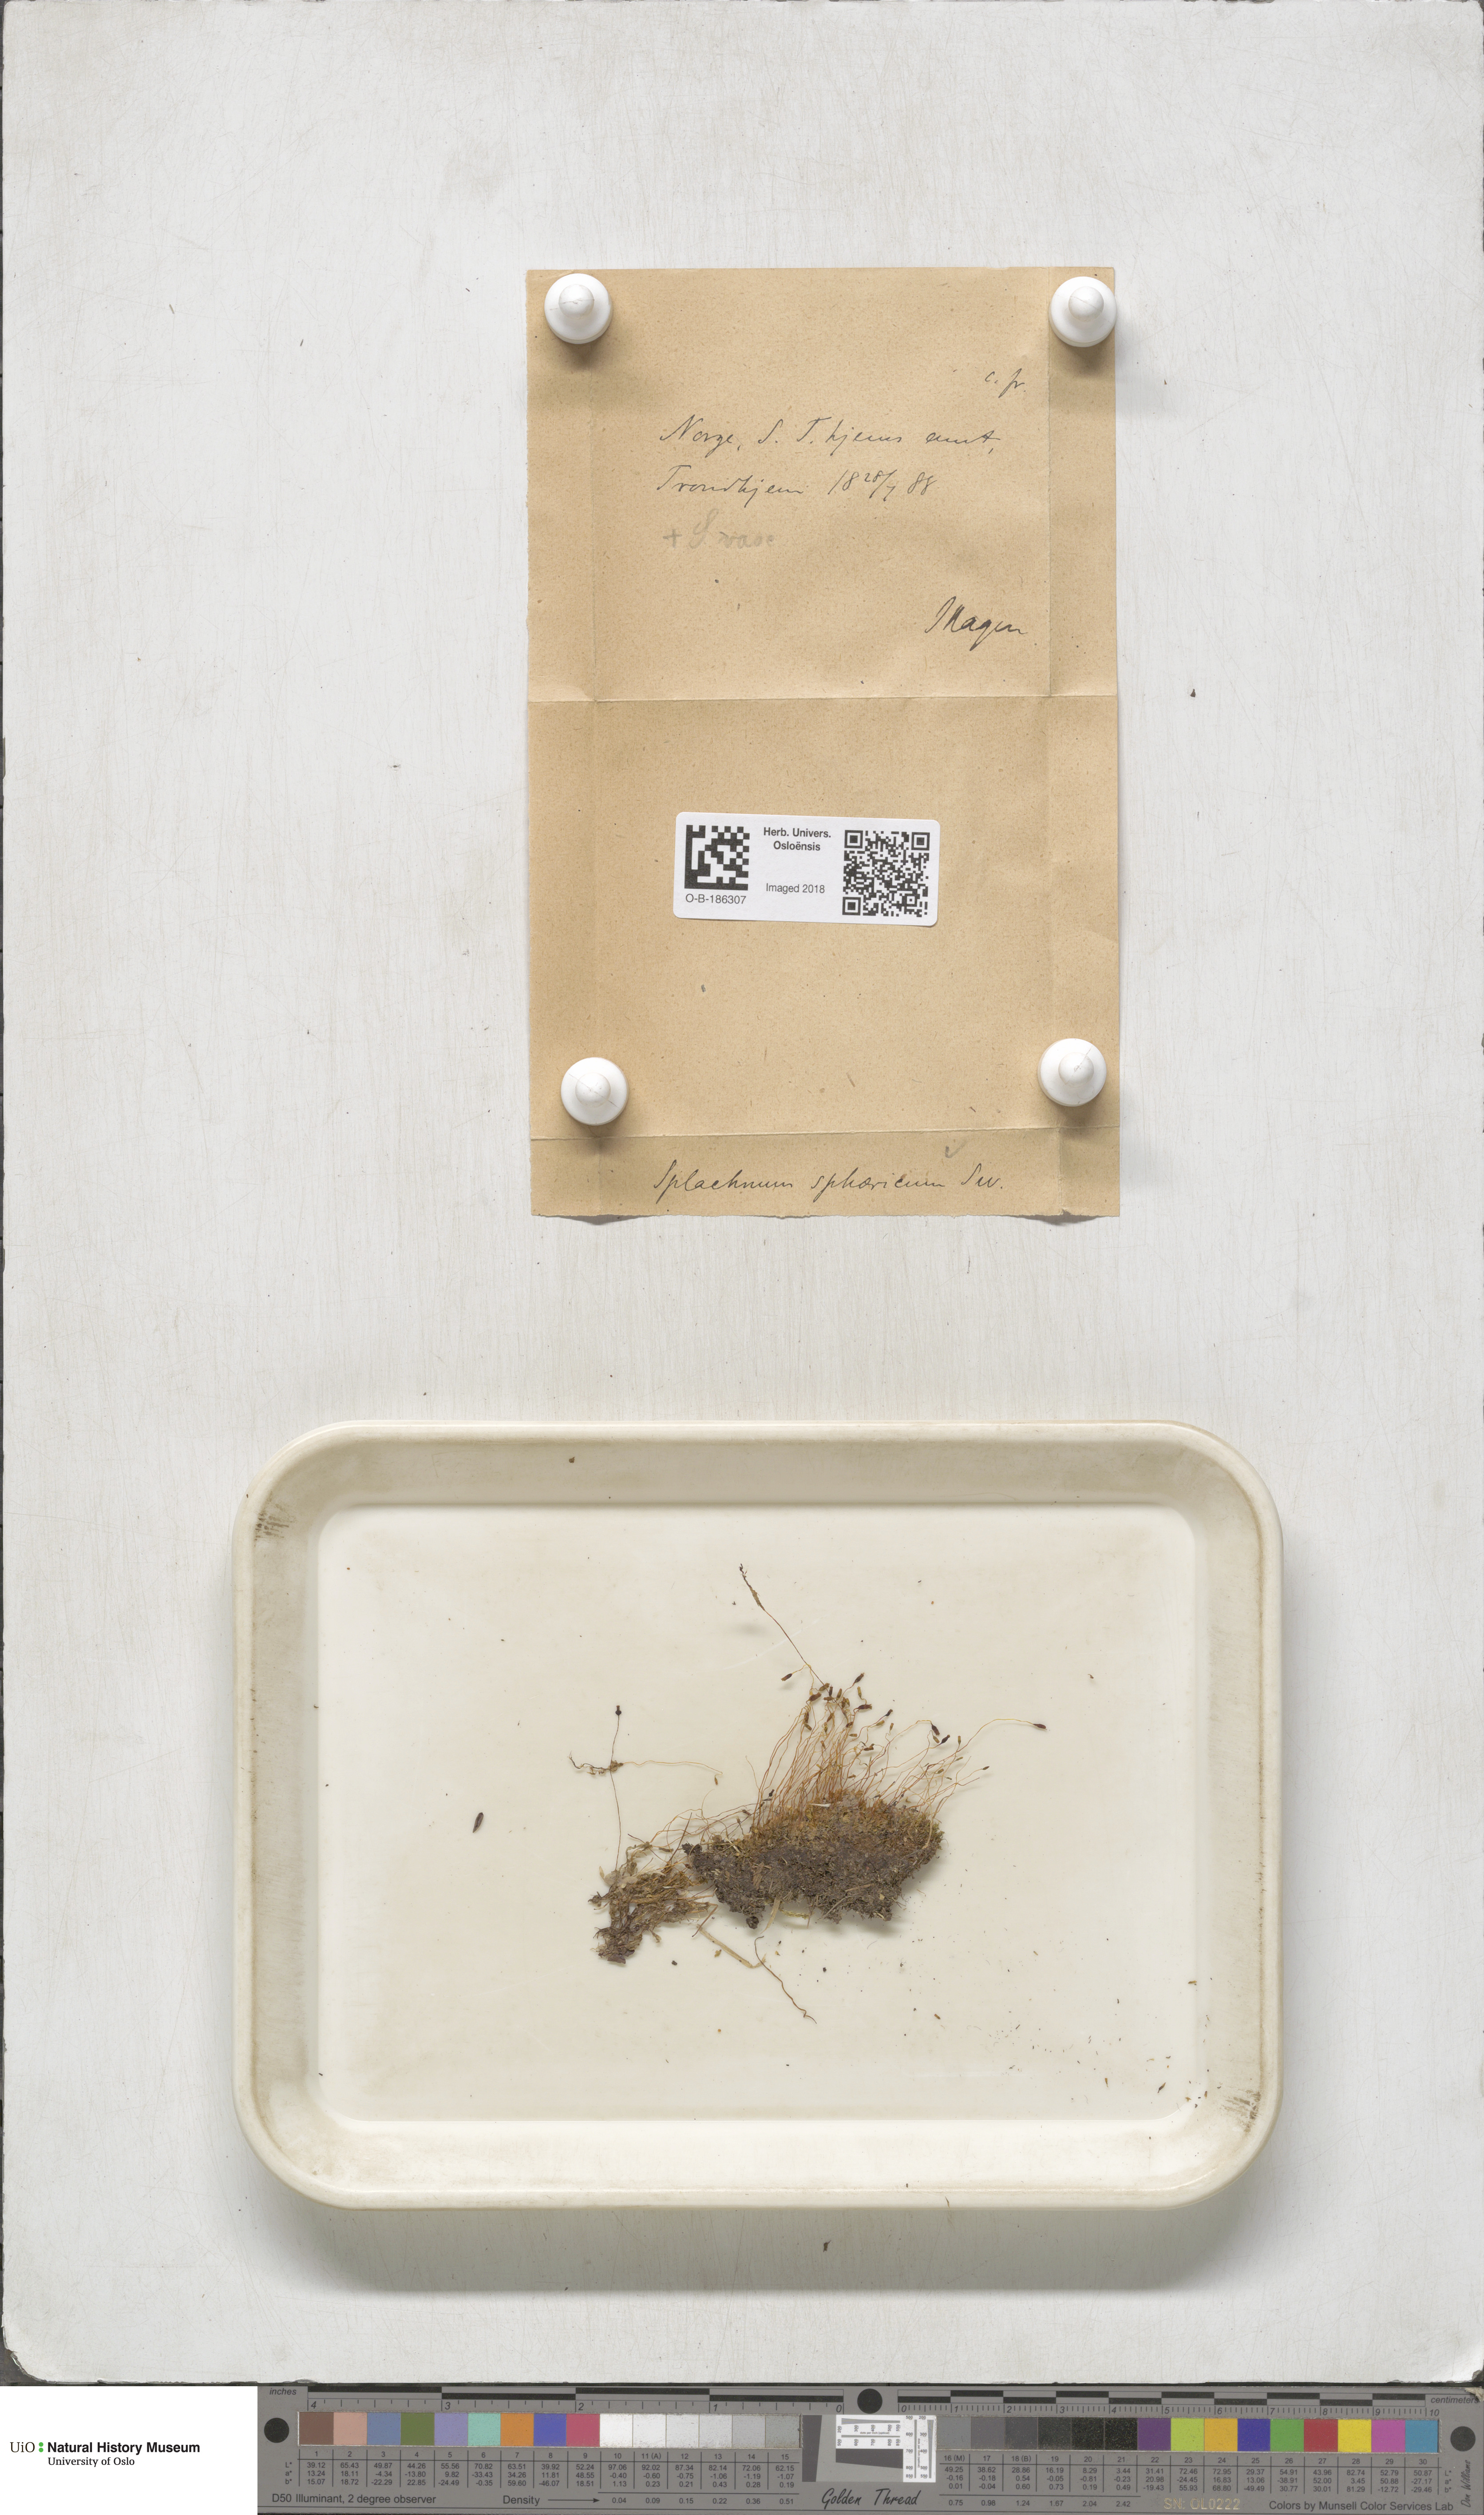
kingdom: Plantae
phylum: Bryophyta
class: Bryopsida
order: Splachnales
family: Splachnaceae
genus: Splachnum
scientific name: Splachnum sphaericum
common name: Round-fruited dung moss
